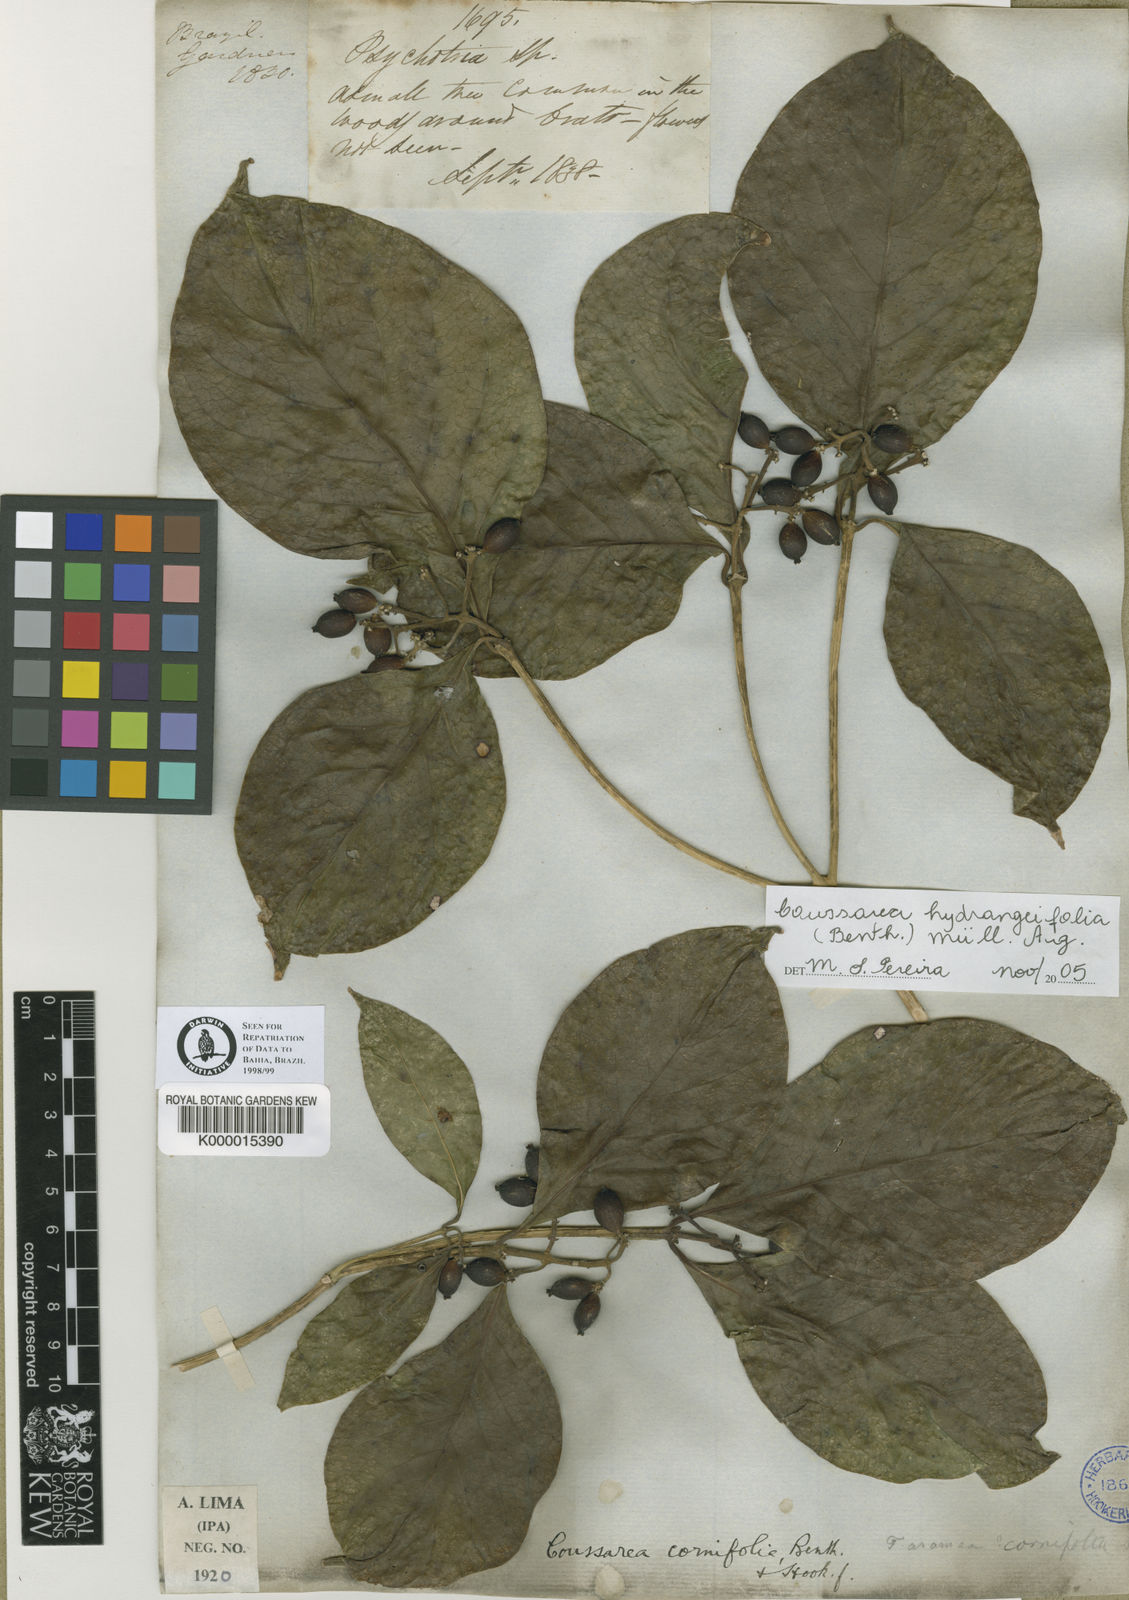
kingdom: Plantae
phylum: Tracheophyta
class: Magnoliopsida
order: Gentianales
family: Rubiaceae
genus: Coussarea
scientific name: Coussarea
